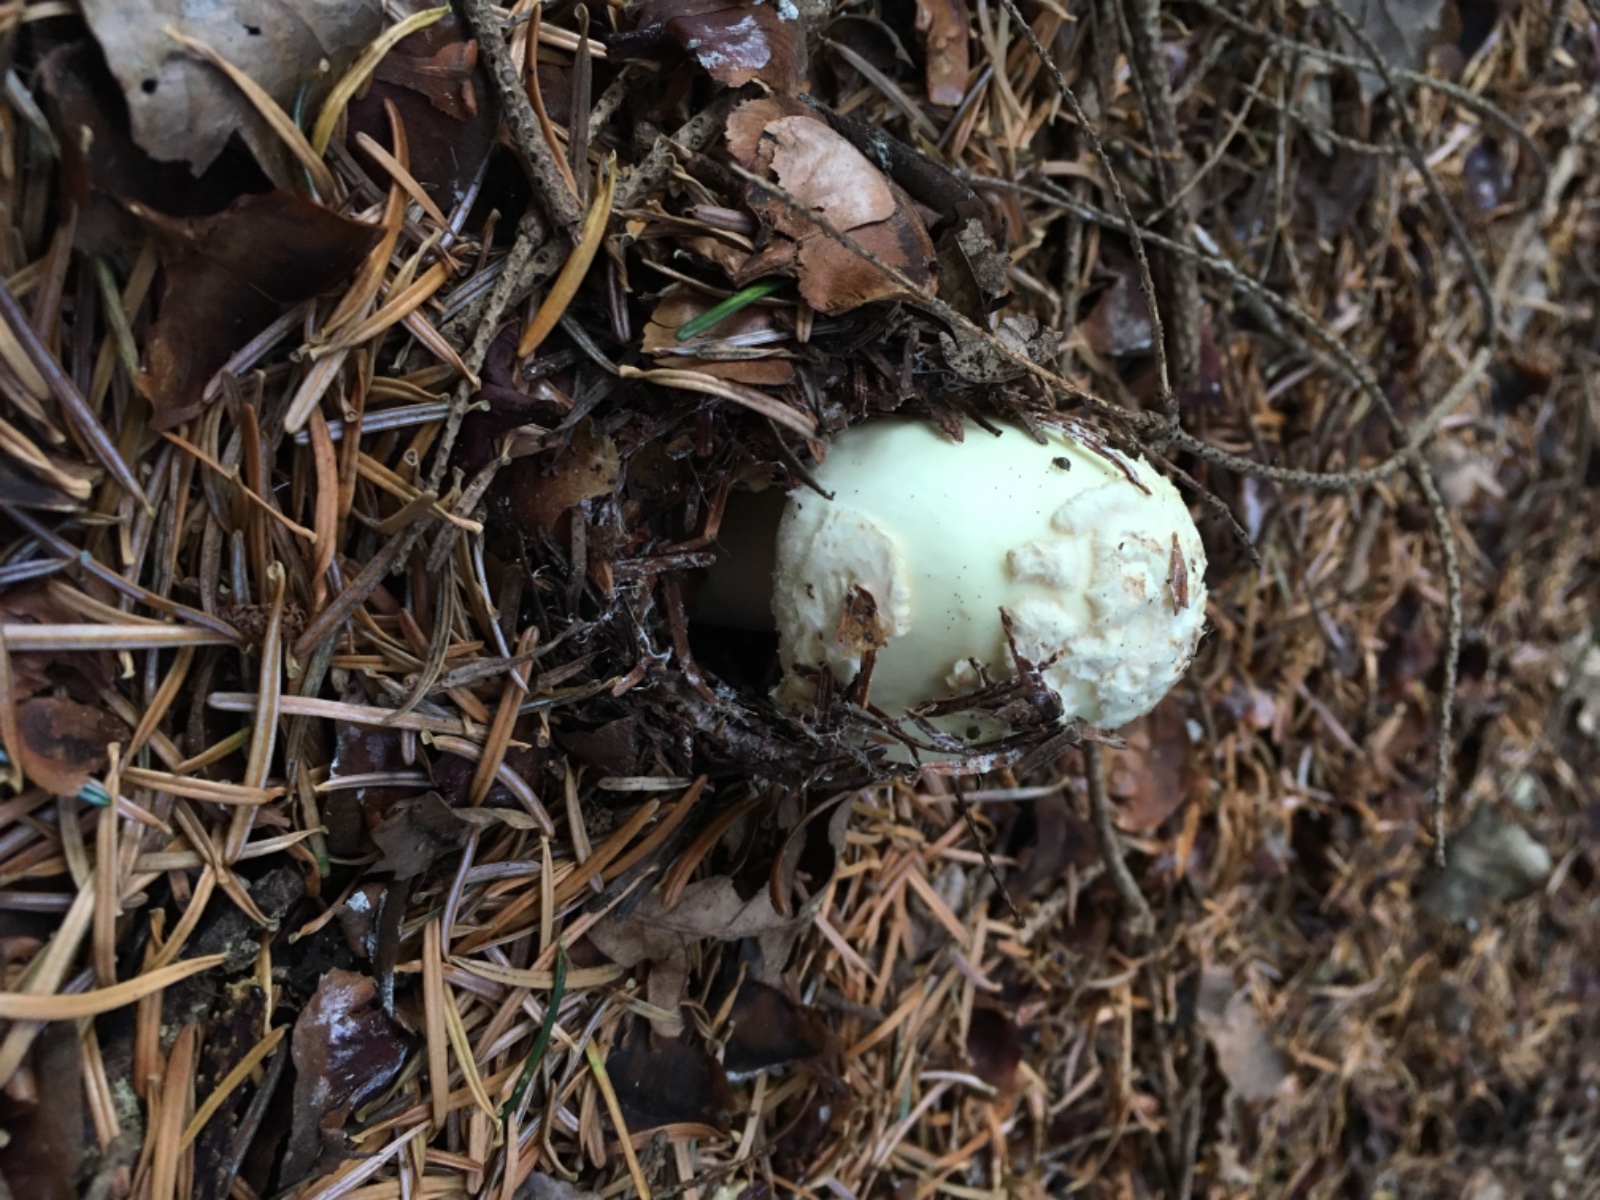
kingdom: Fungi
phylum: Basidiomycota
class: Agaricomycetes
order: Agaricales
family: Amanitaceae
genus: Amanita
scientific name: Amanita citrina
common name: kugleknoldet fluesvamp
